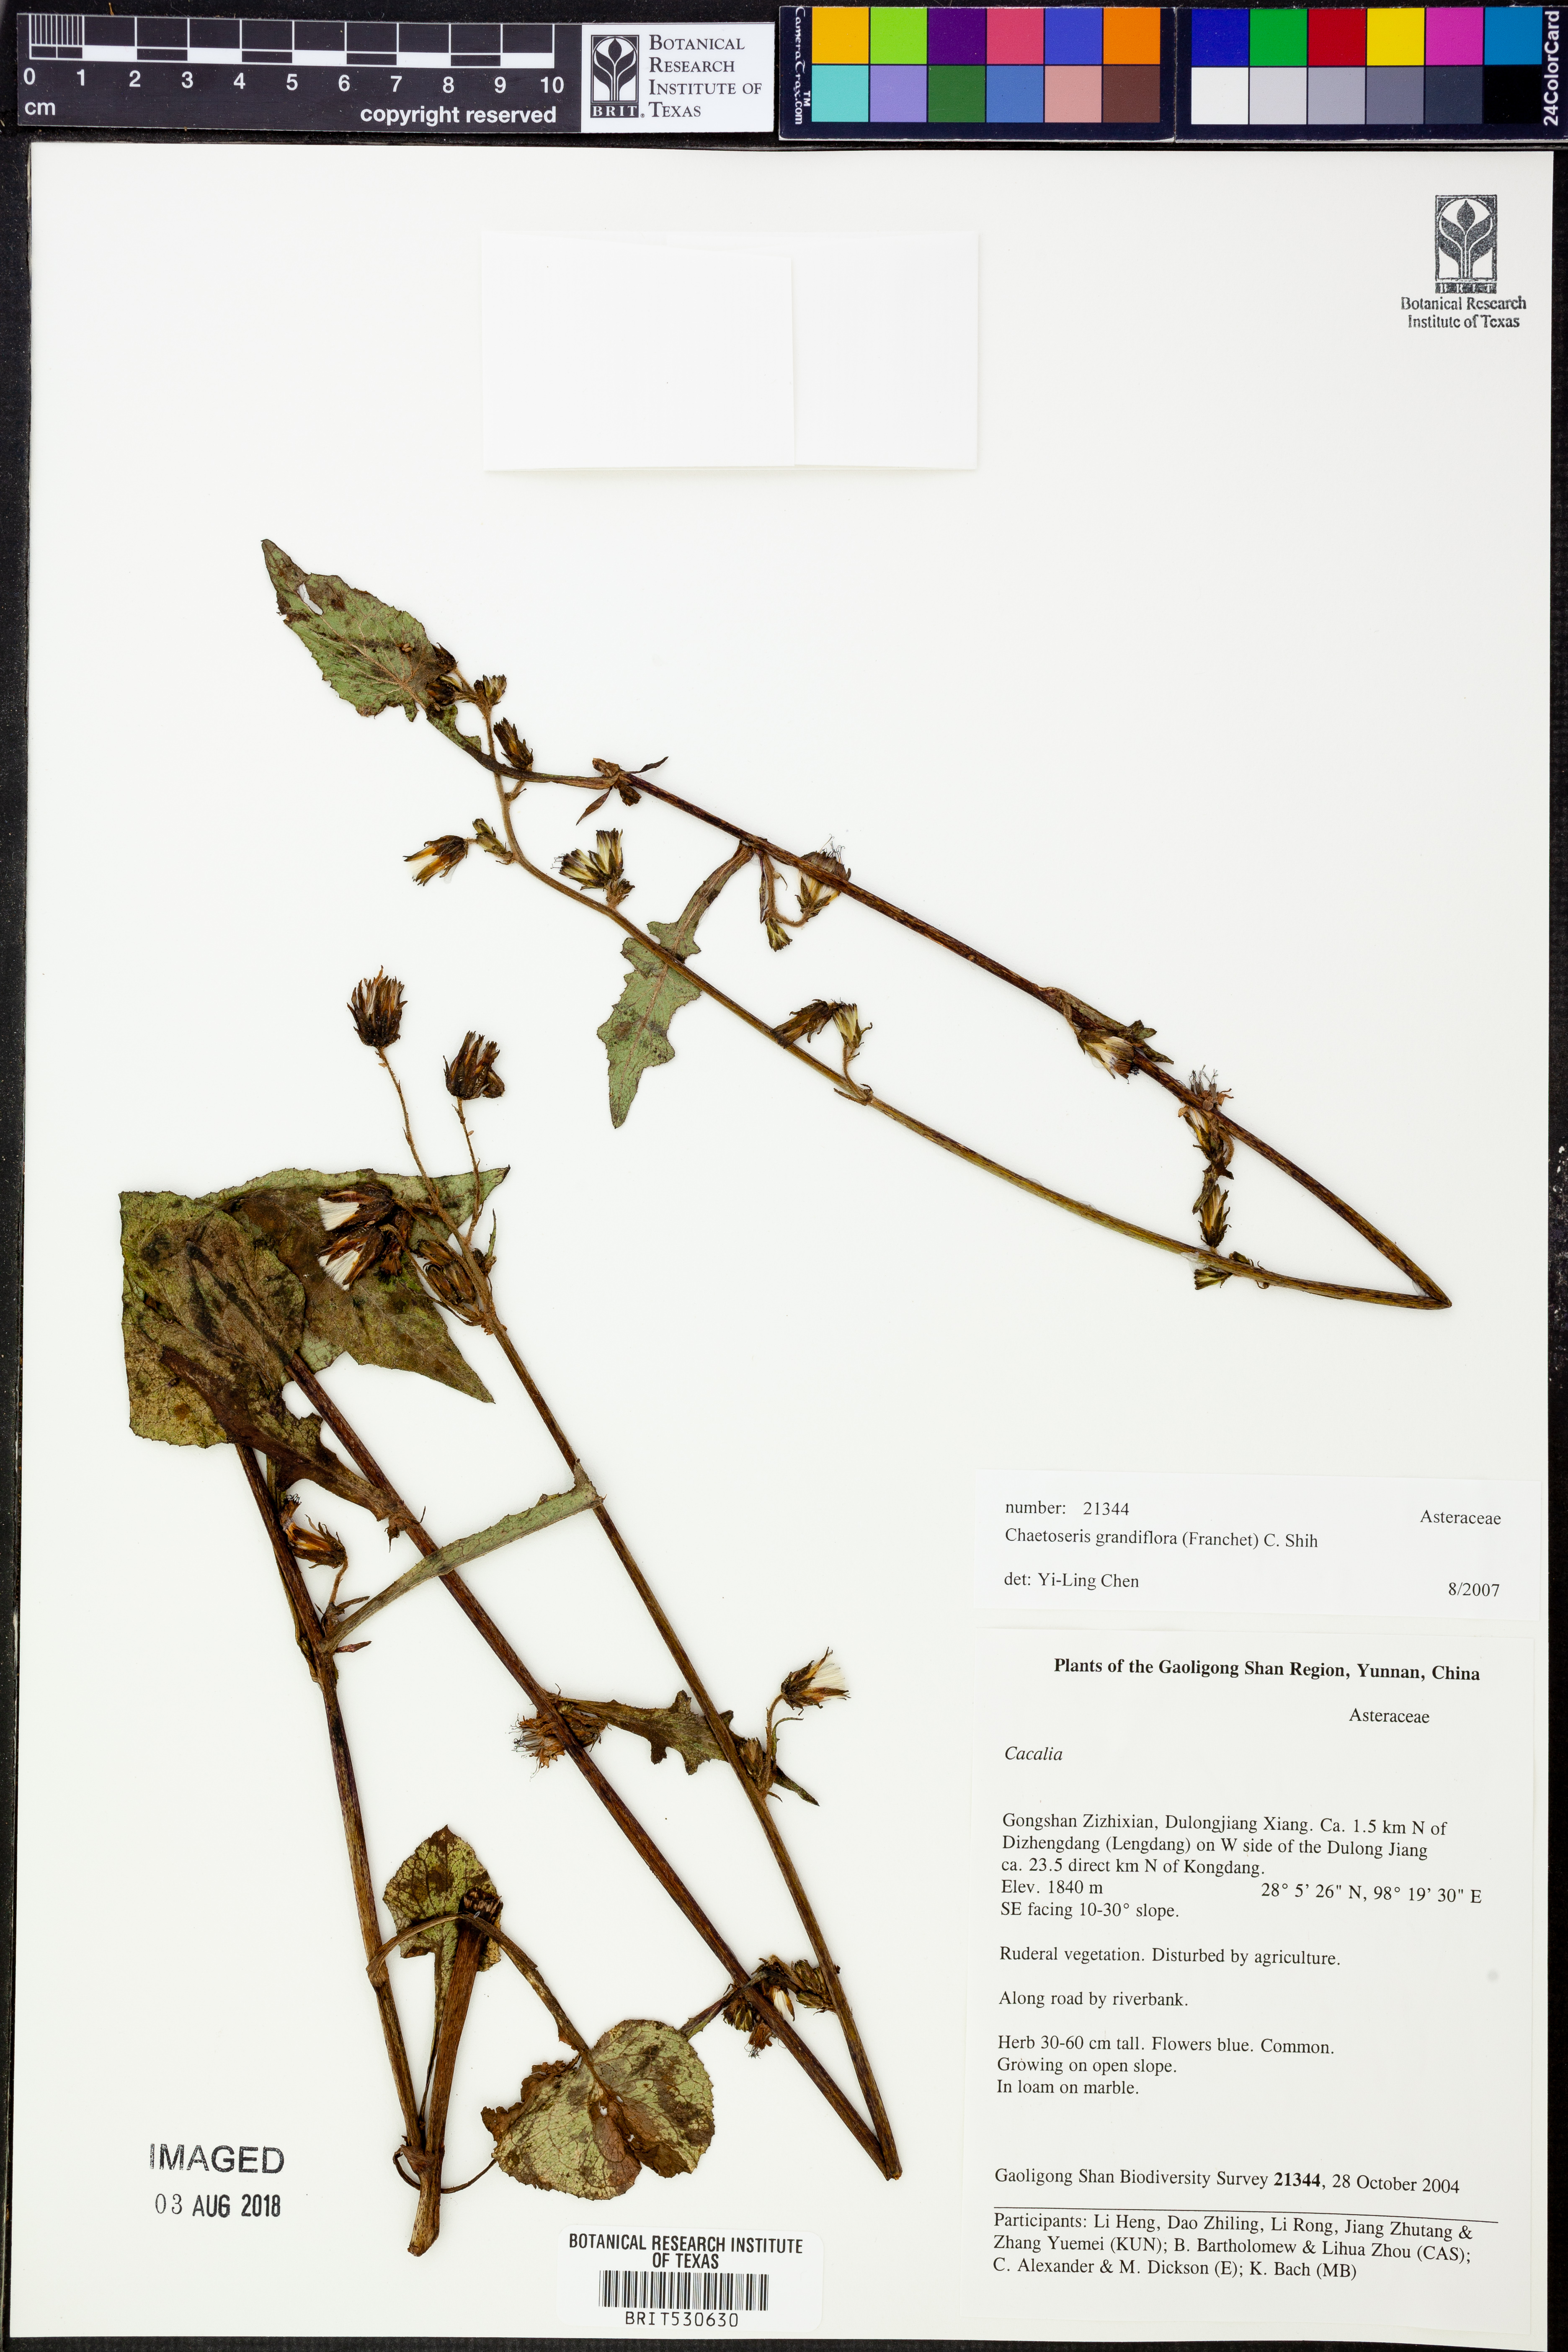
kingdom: Plantae
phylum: Tracheophyta
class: Magnoliopsida
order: Asterales
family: Asteraceae
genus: Melanoseris
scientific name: Melanoseris atropurpurea
